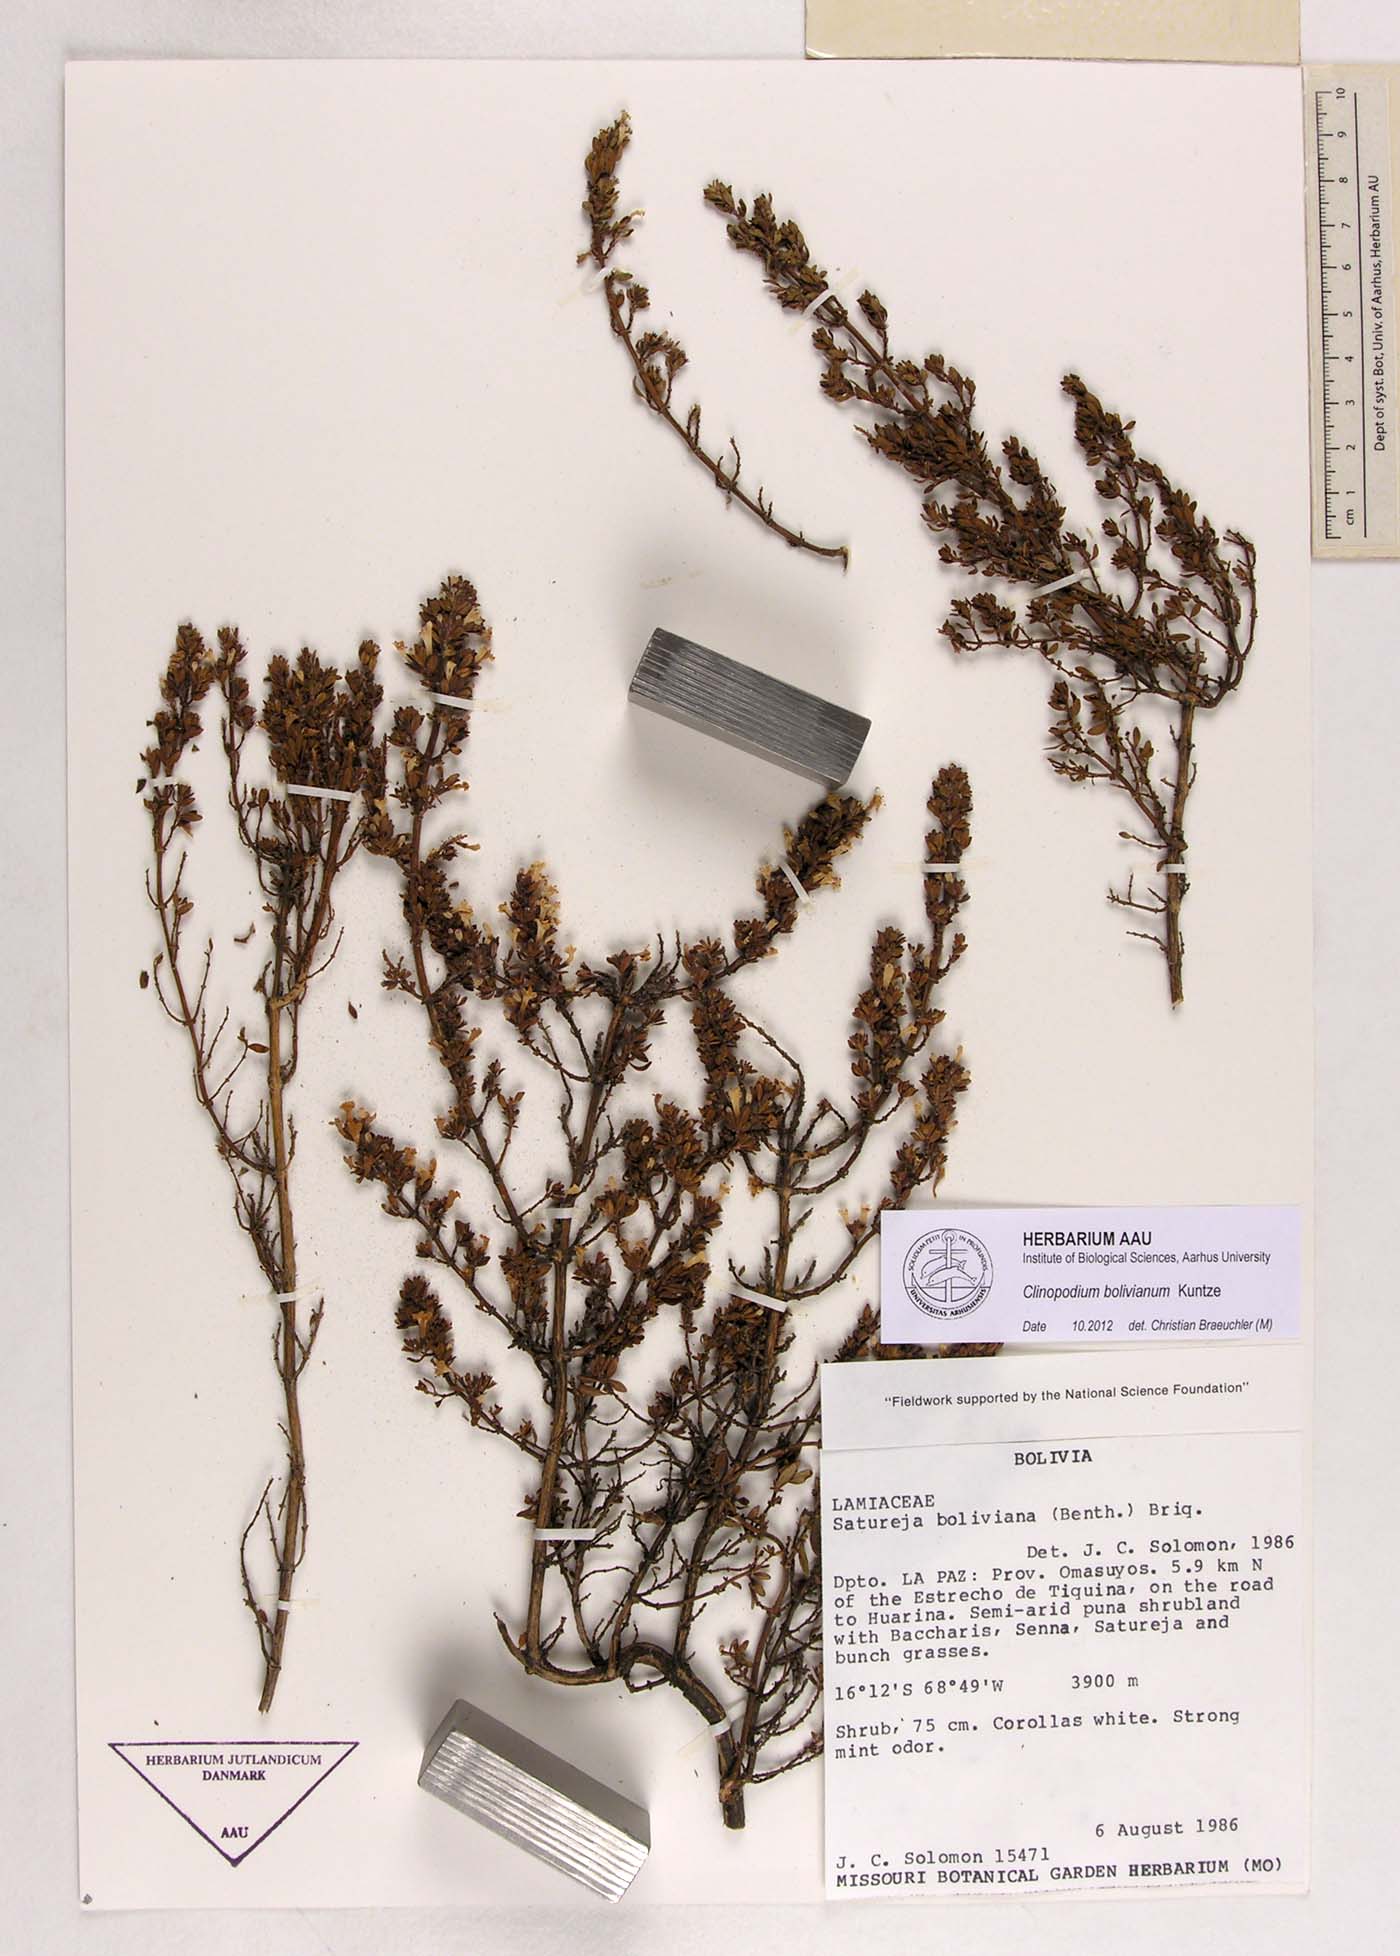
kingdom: Plantae
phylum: Tracheophyta
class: Magnoliopsida
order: Lamiales
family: Lamiaceae
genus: Clinopodium
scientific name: Clinopodium bolivianum
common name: Inca muña
